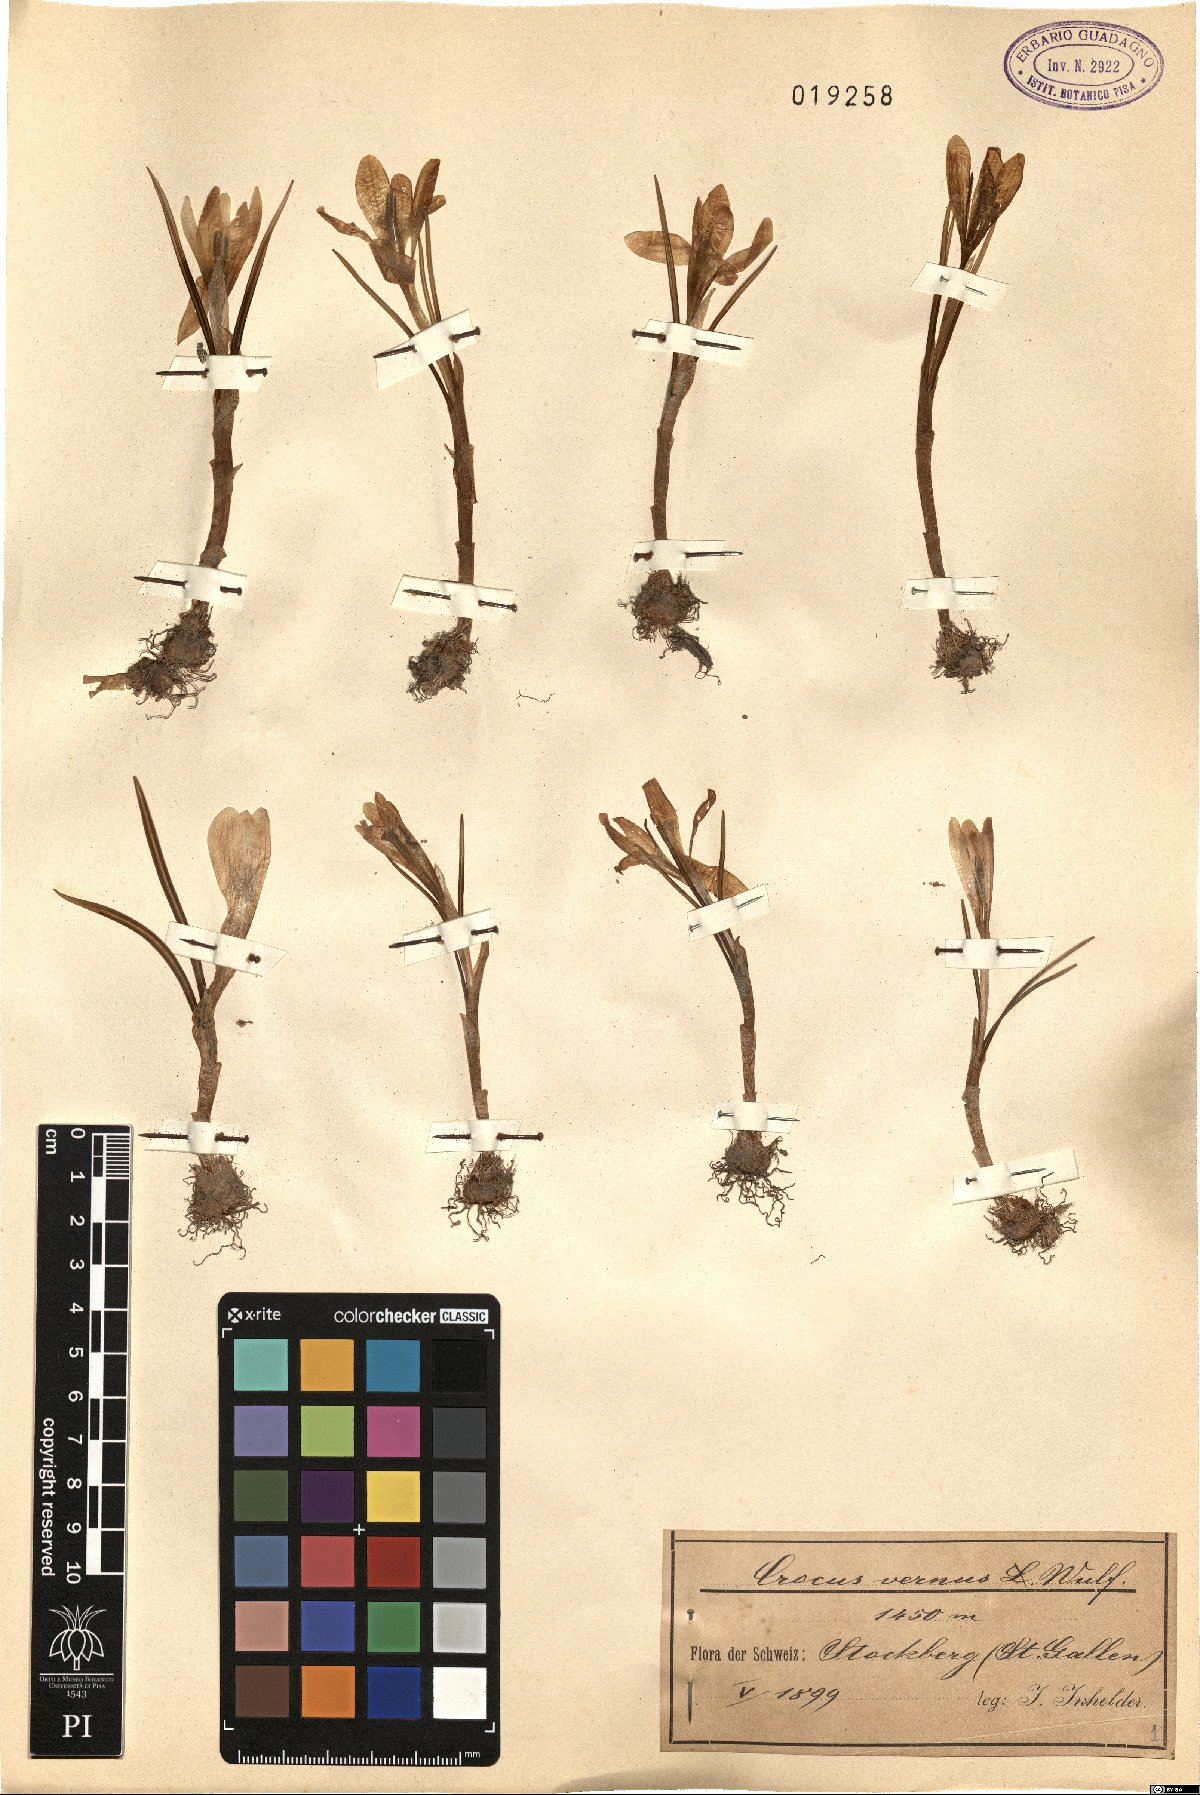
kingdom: Plantae
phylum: Tracheophyta
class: Liliopsida
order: Asparagales
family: Iridaceae
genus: Crocus
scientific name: Crocus vernus
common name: Spring crocus
